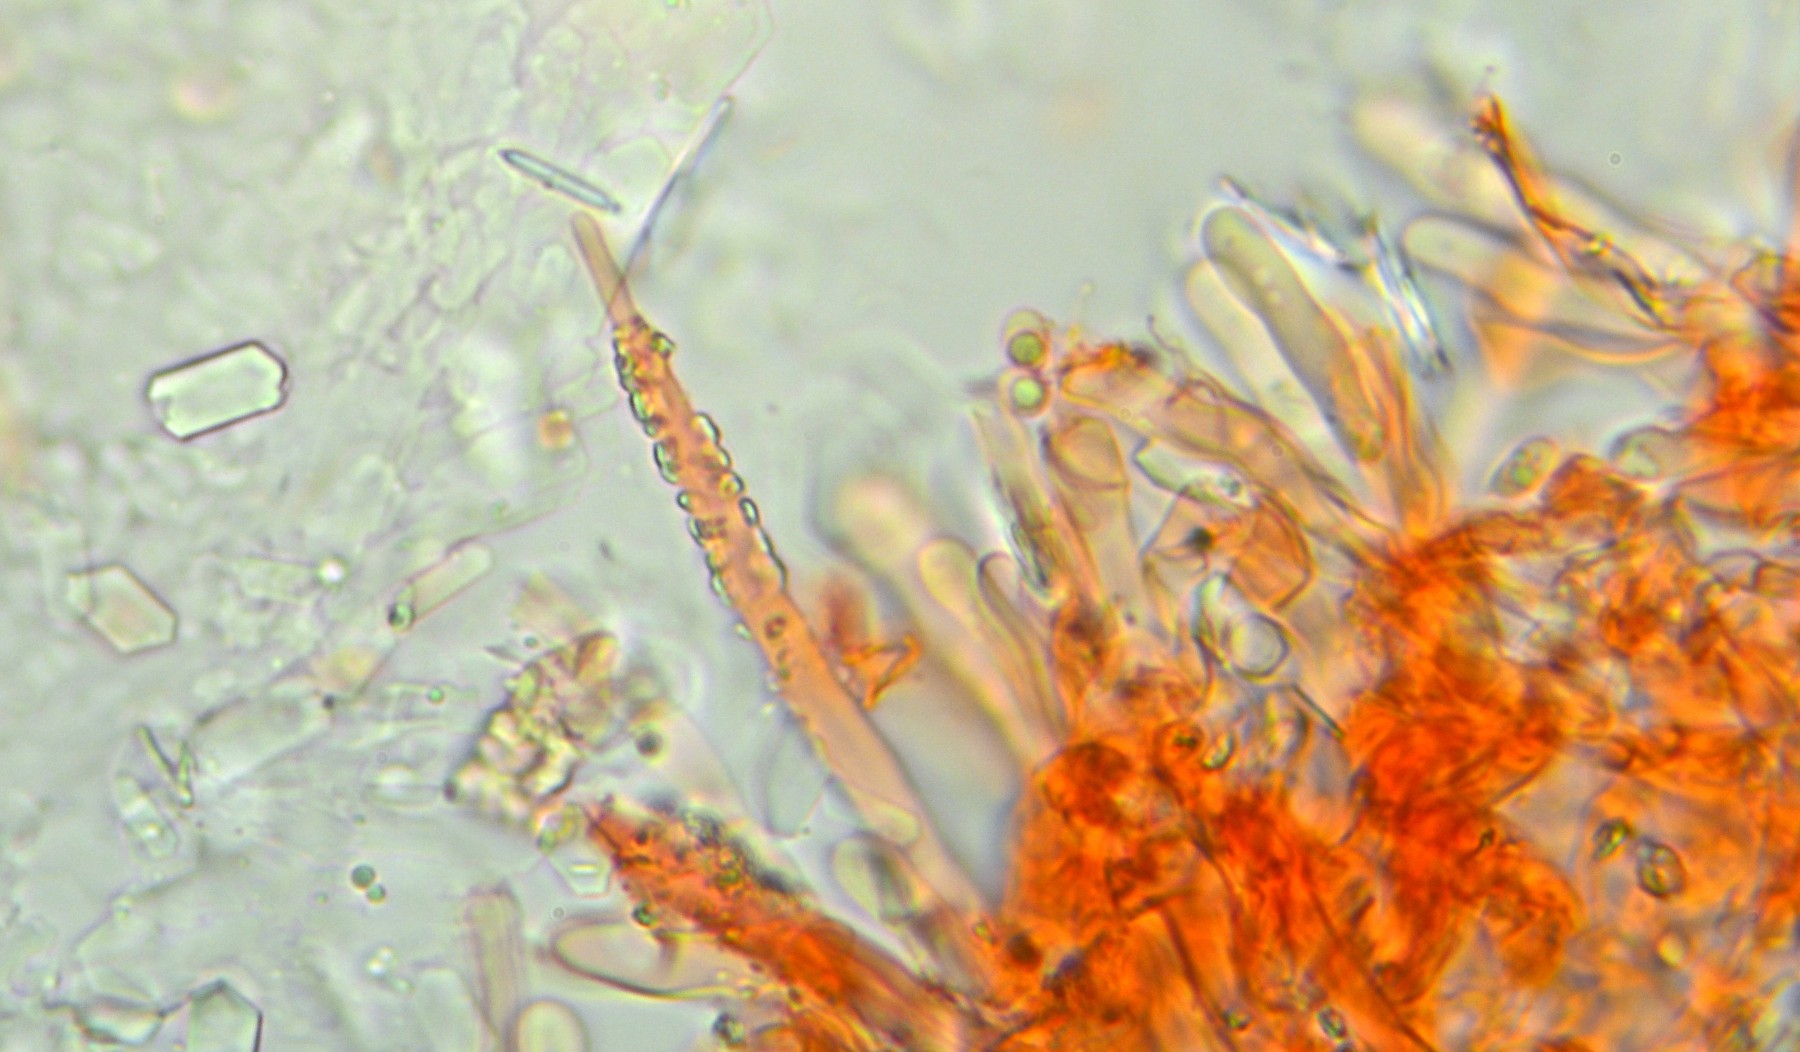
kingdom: Fungi
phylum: Basidiomycota
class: Agaricomycetes
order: Polyporales
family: Phanerochaetaceae
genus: Phanerochaete
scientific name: Phanerochaete laevis
